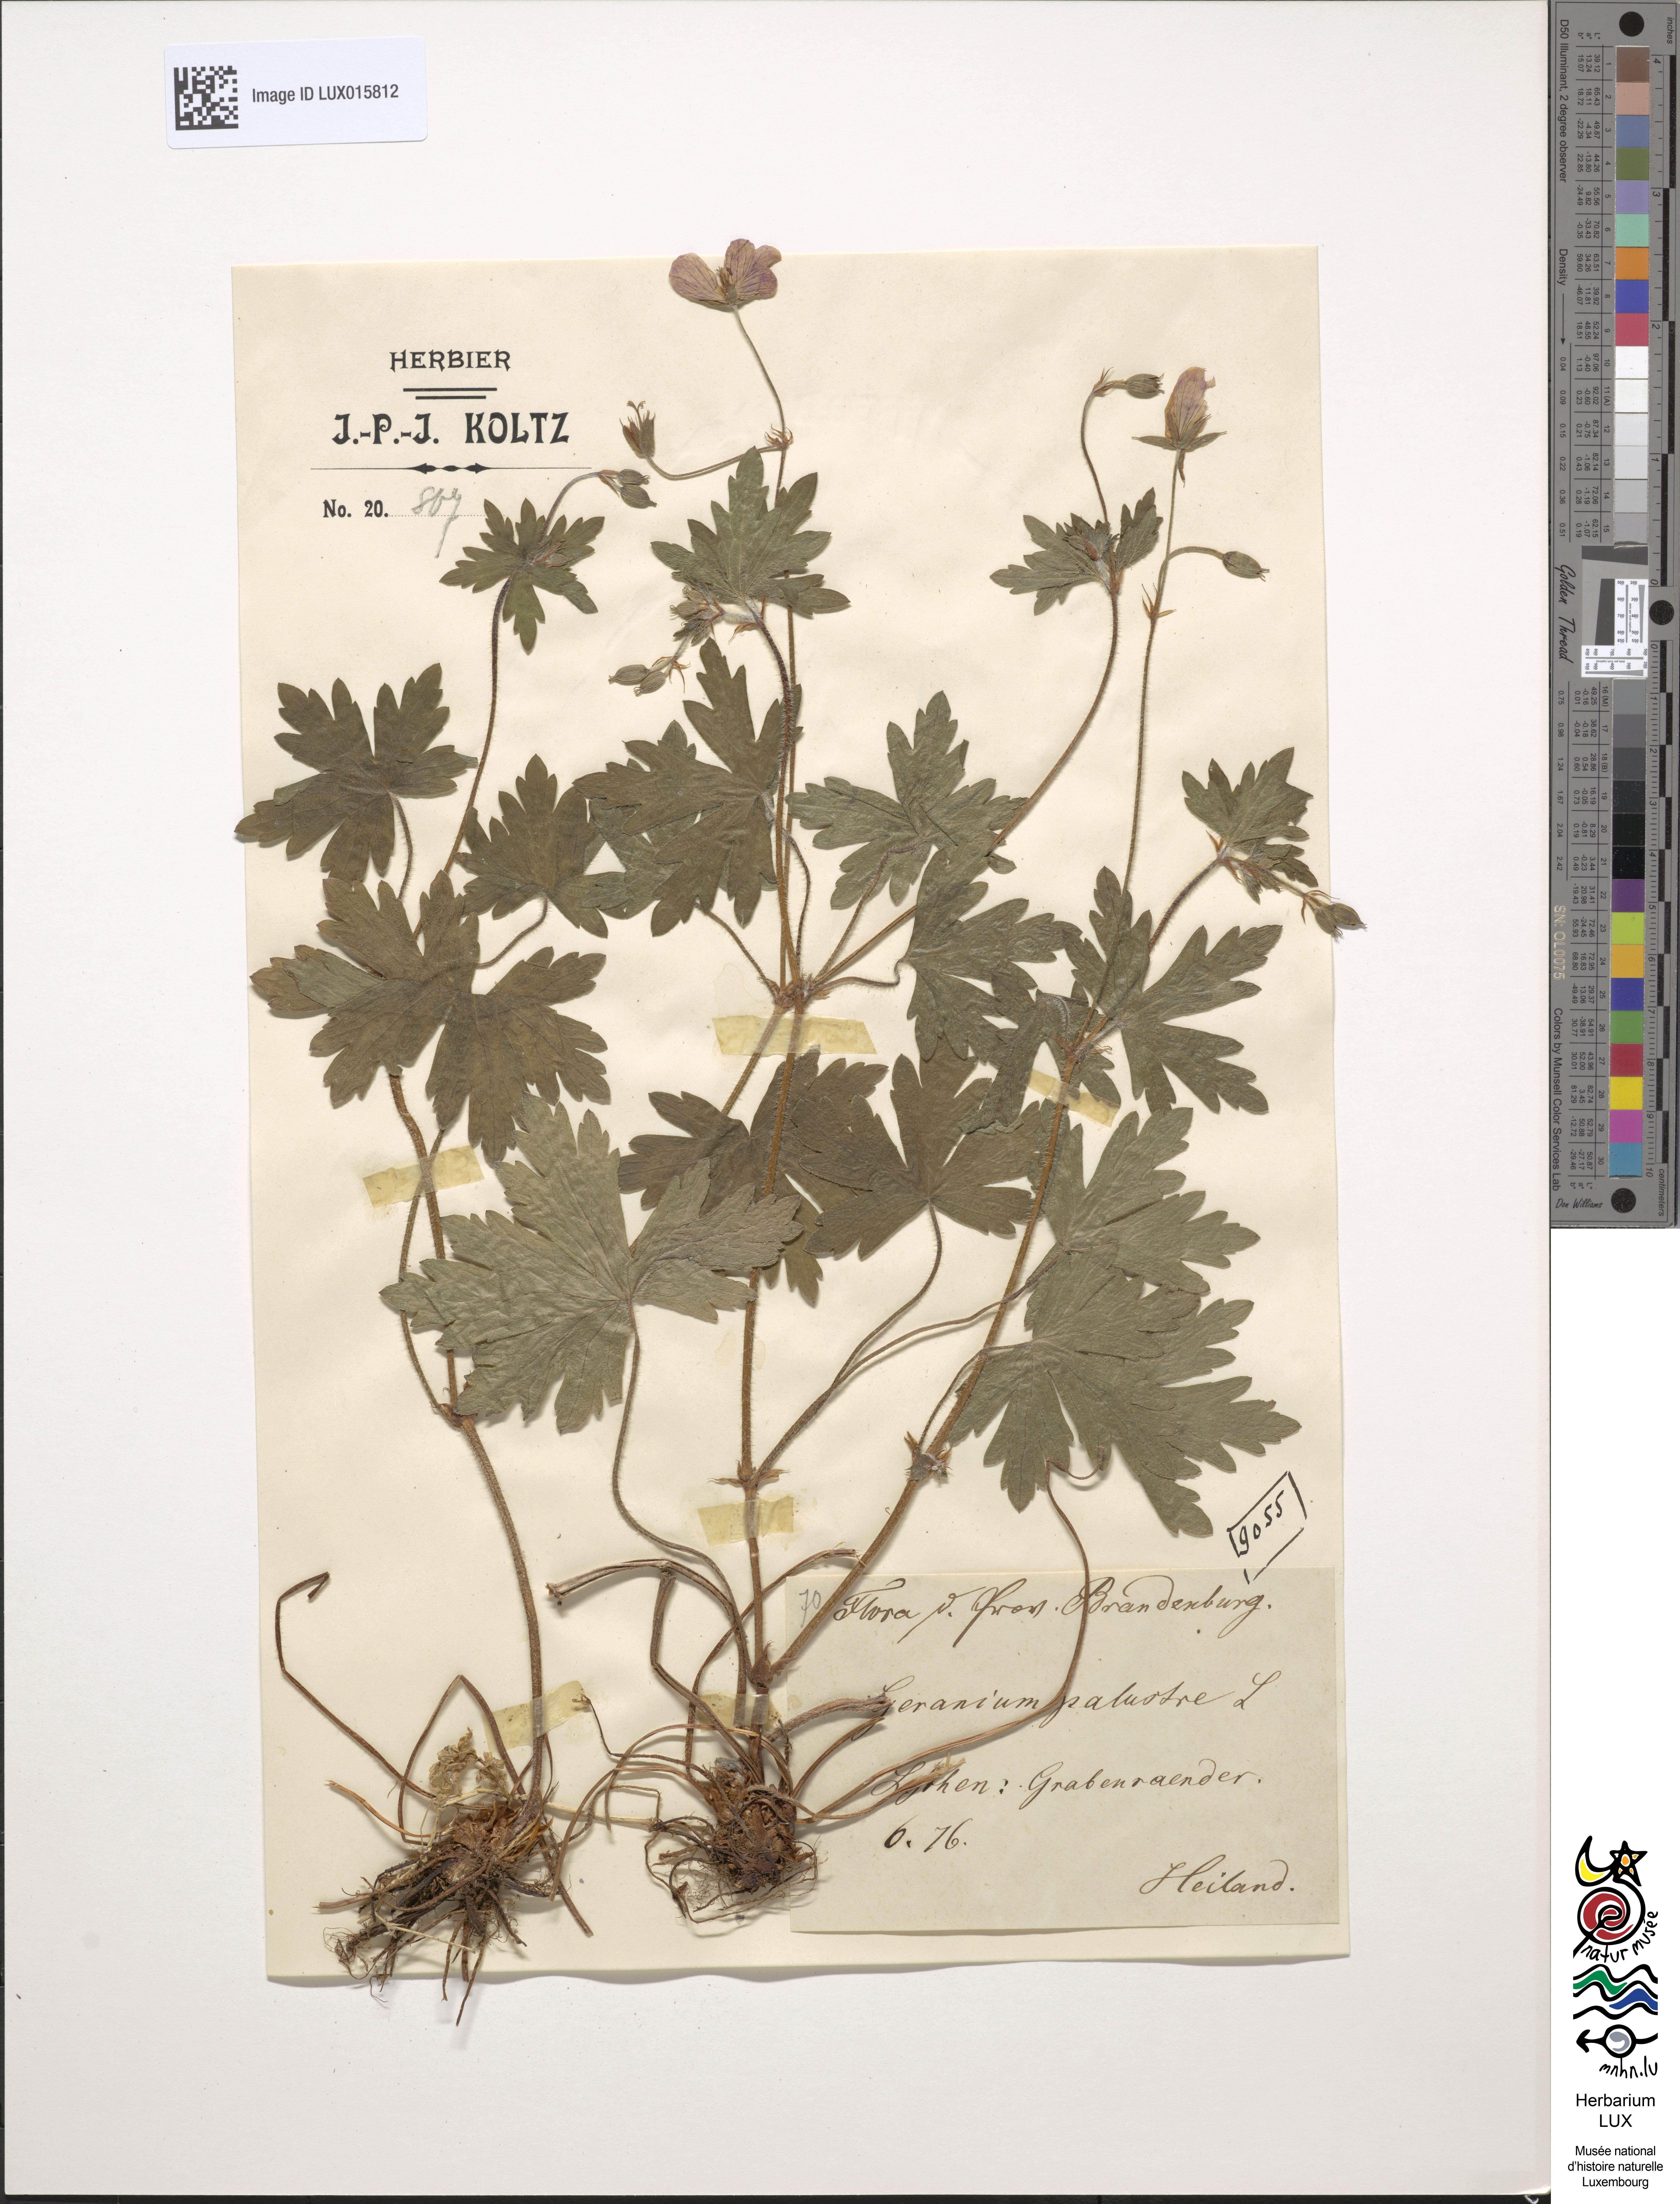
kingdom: Plantae
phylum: Tracheophyta
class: Magnoliopsida
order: Geraniales
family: Geraniaceae
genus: Geranium
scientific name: Geranium palustre
